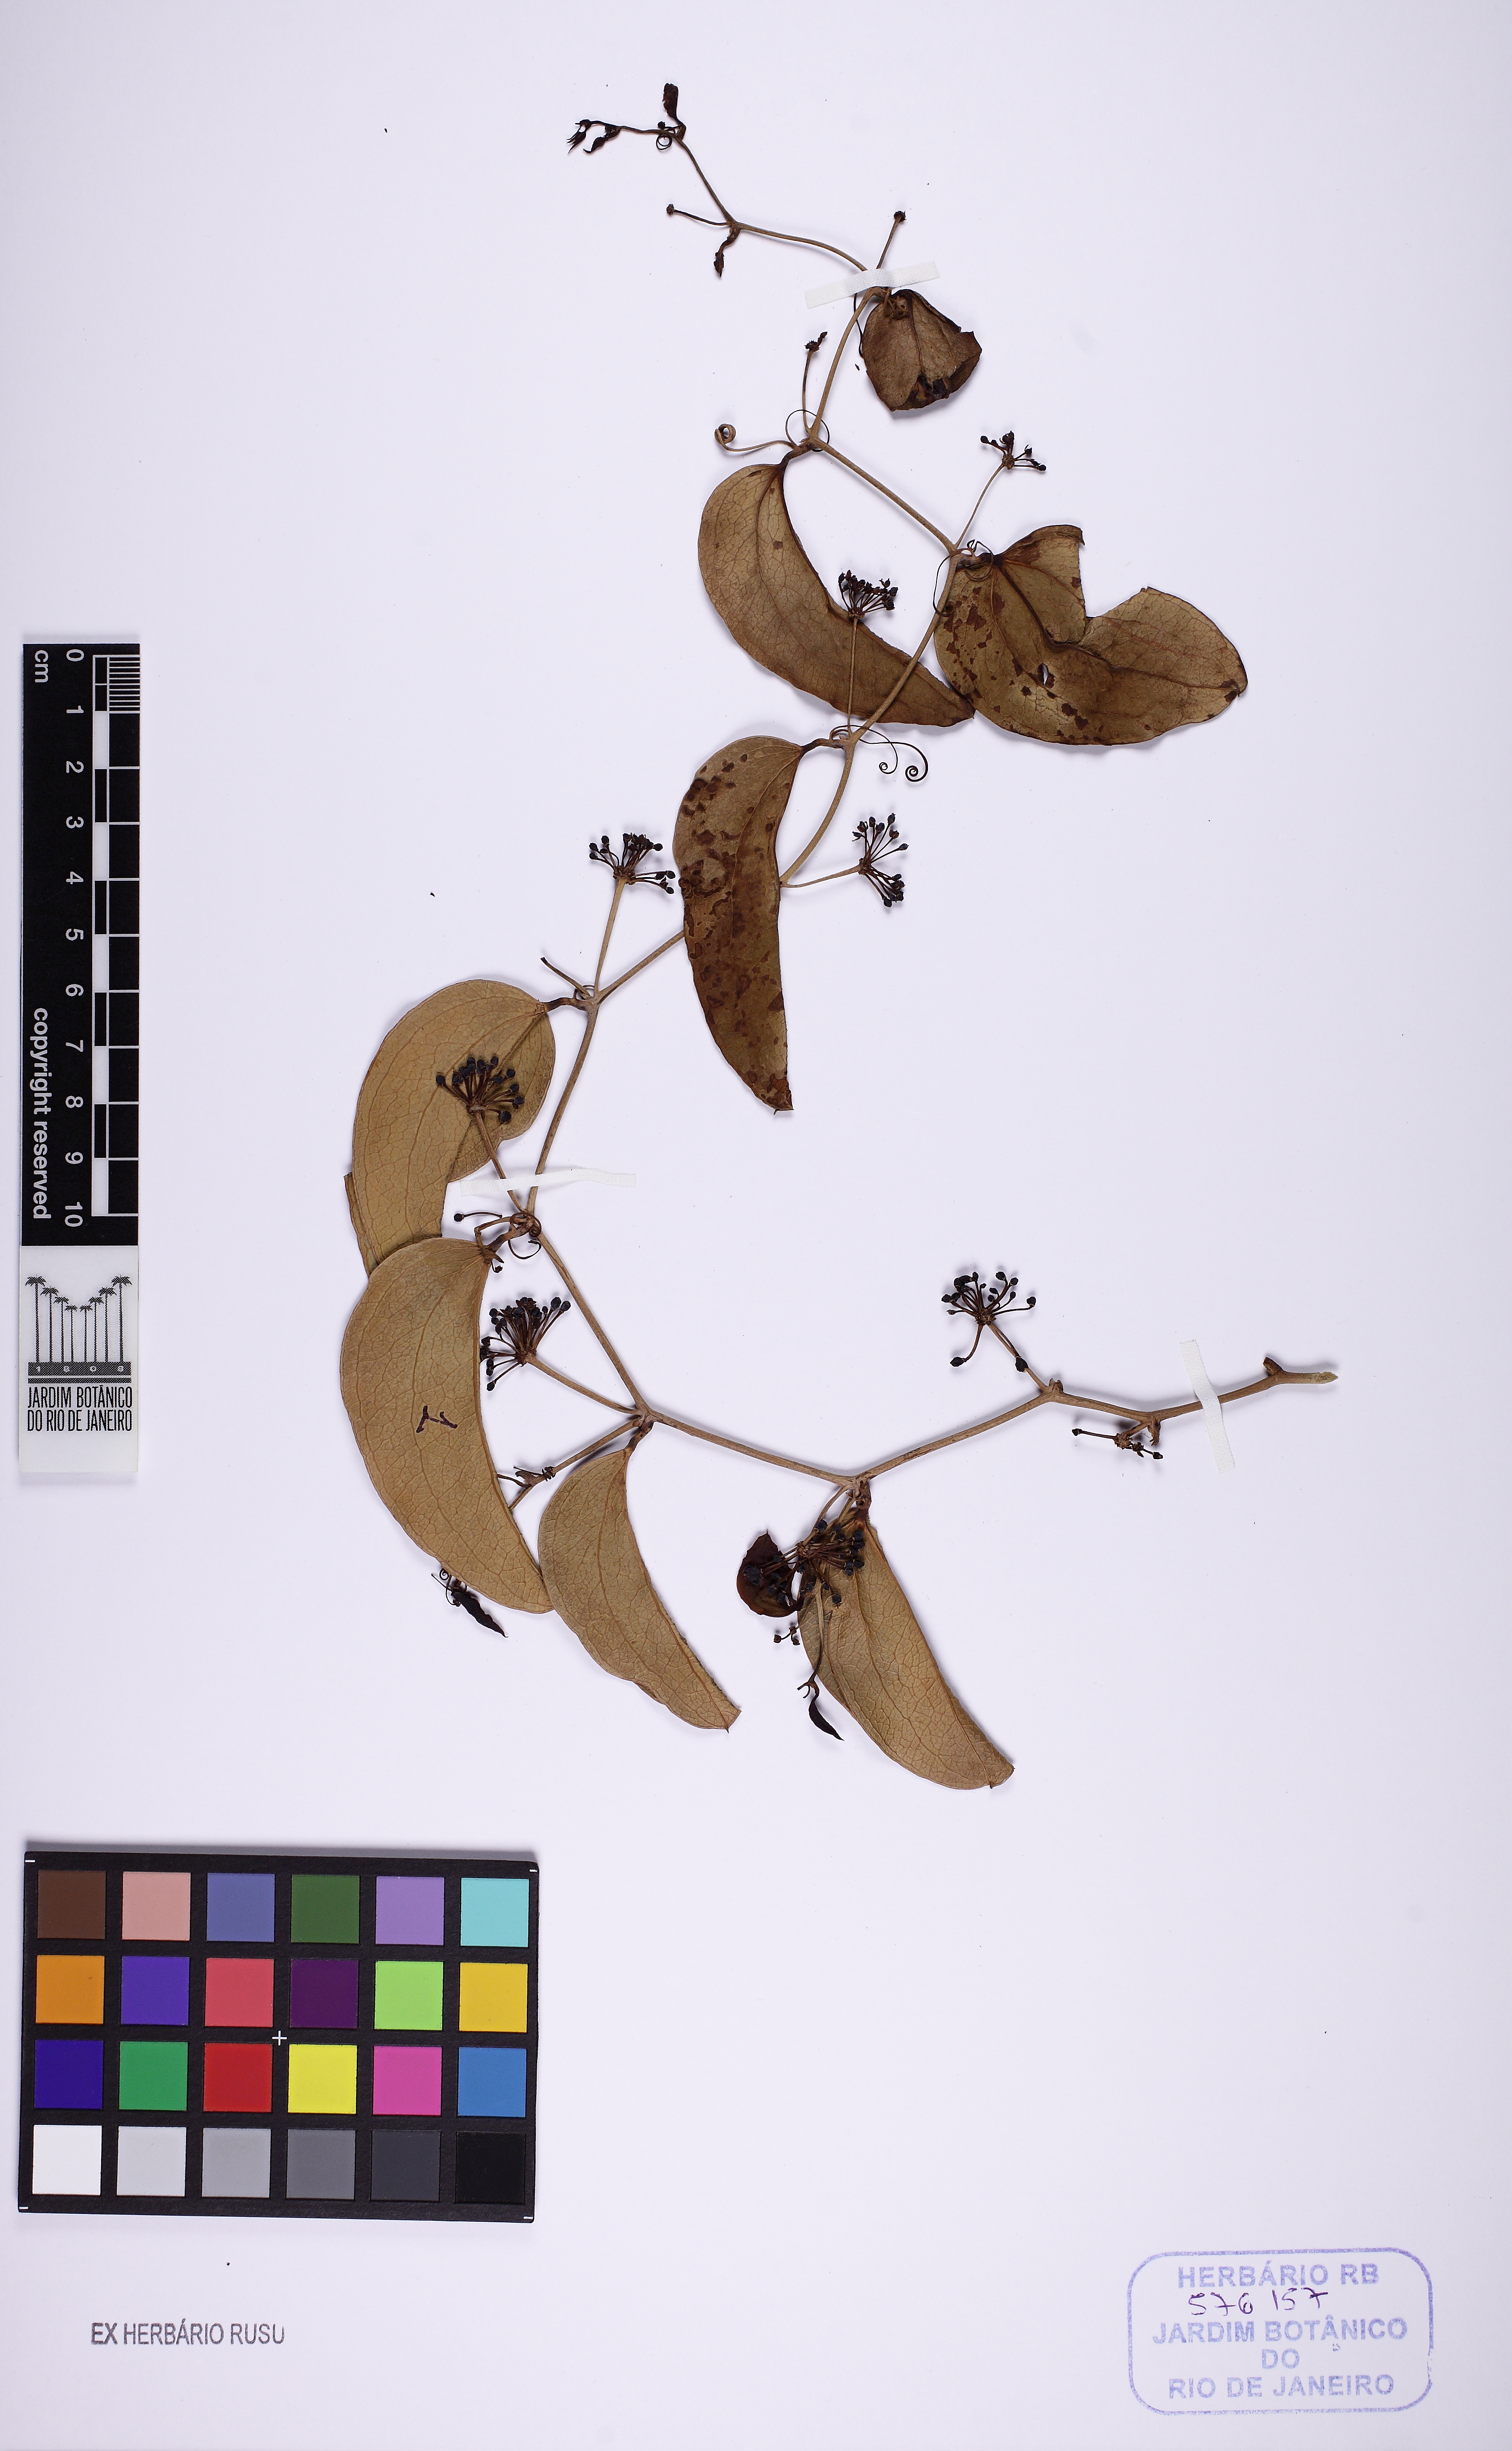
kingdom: Plantae
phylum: Tracheophyta
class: Liliopsida
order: Liliales
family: Smilacaceae
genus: Smilax
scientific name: Smilax polyantha
